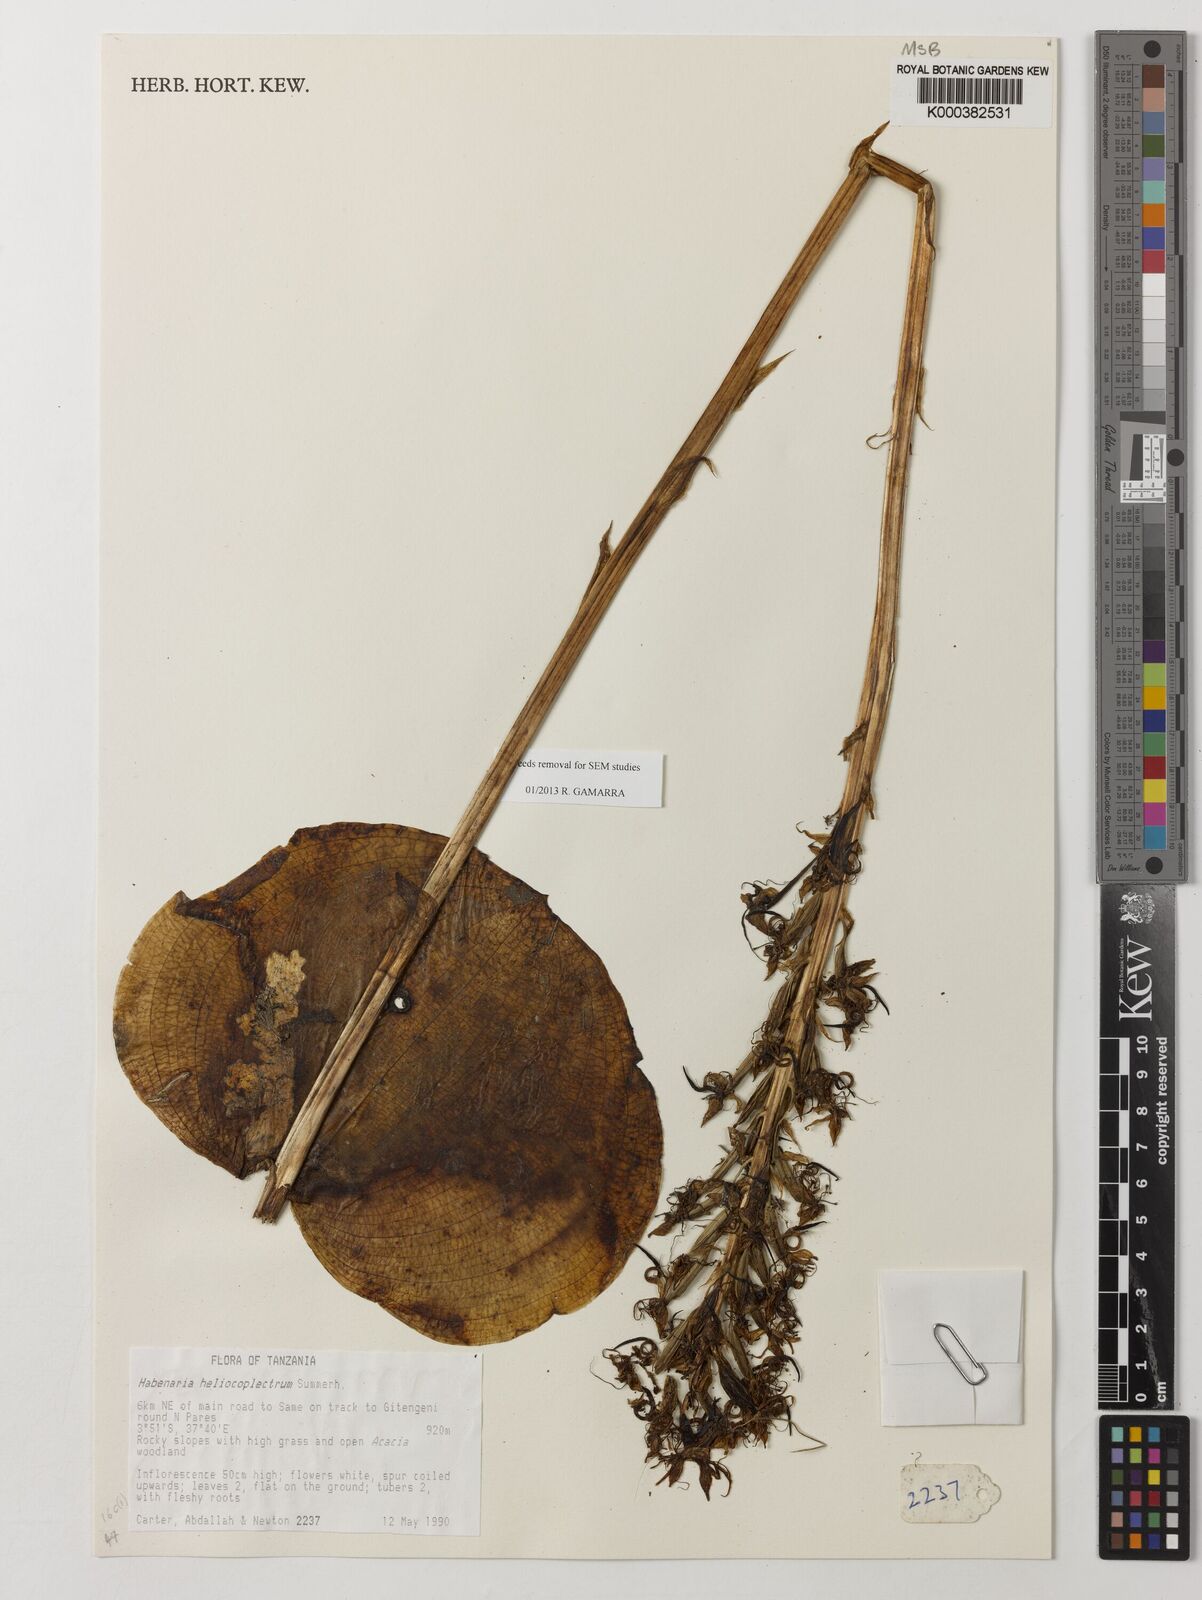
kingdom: Plantae
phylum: Tracheophyta
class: Liliopsida
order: Asparagales
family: Orchidaceae
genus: Habenaria
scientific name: Habenaria helicoplectrum
